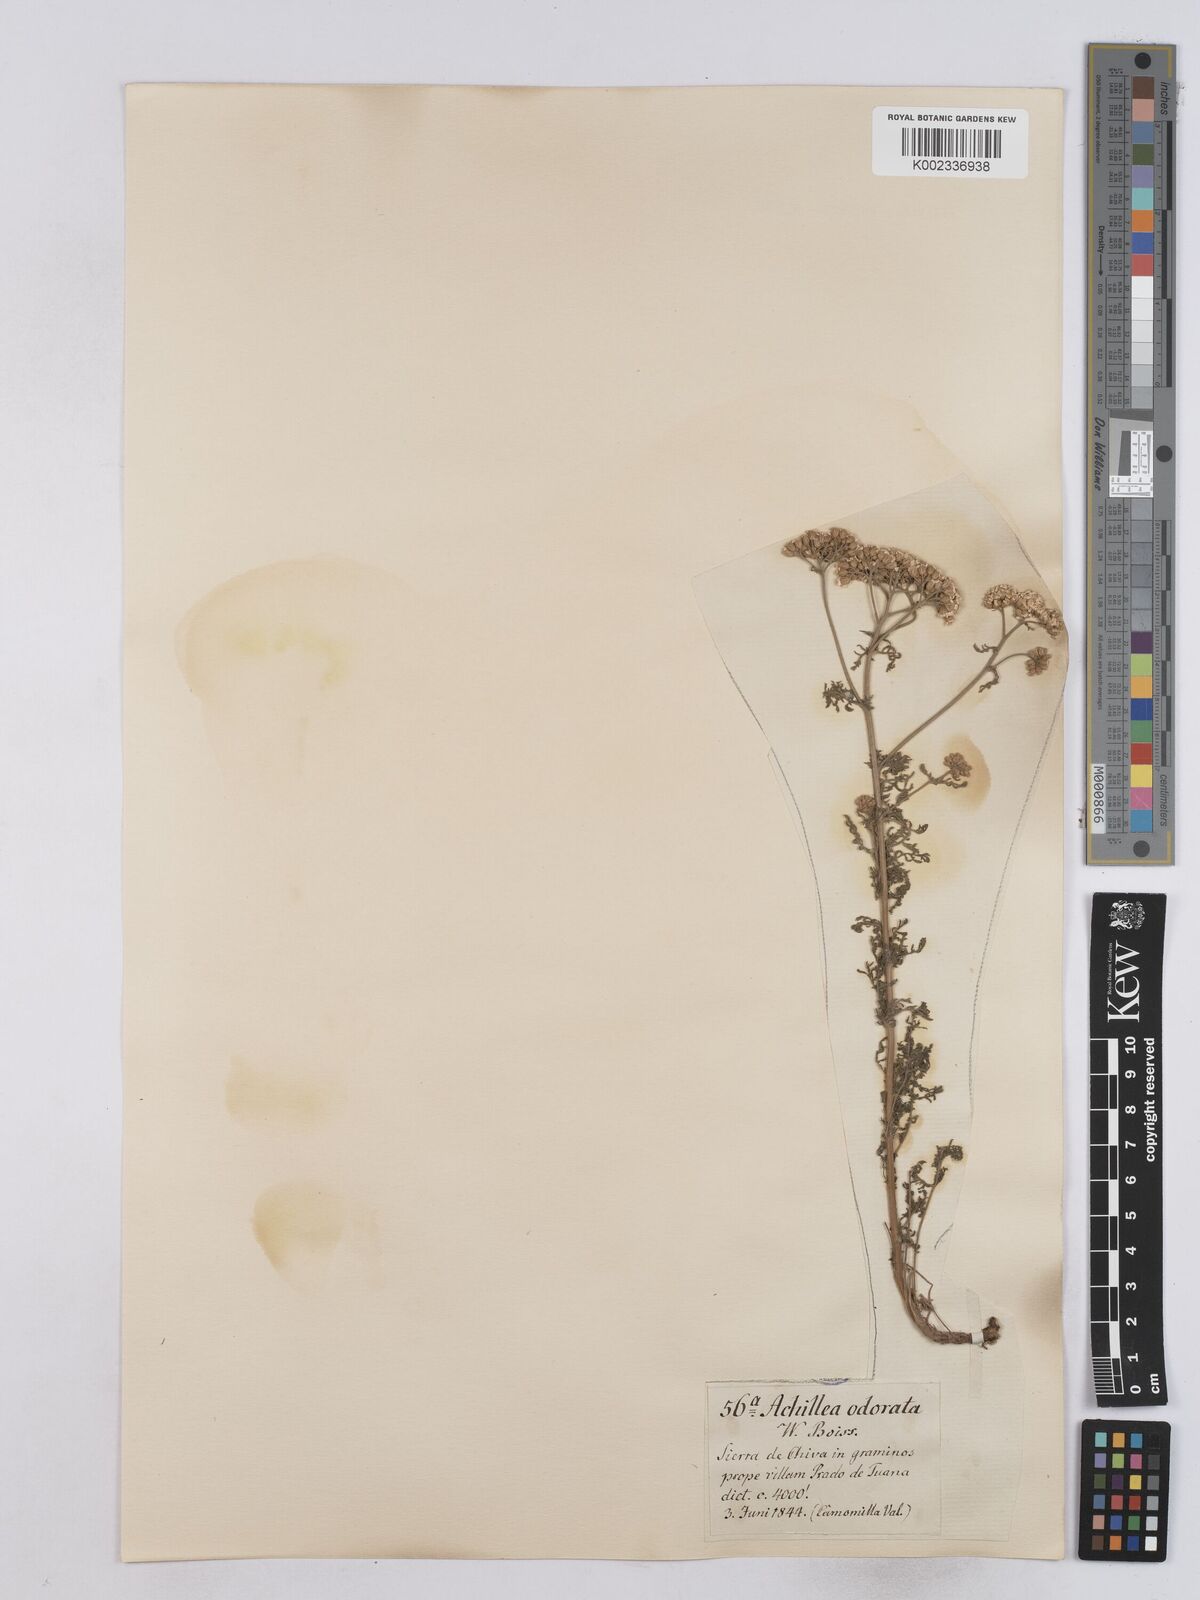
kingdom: Plantae
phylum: Tracheophyta
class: Magnoliopsida
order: Asterales
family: Asteraceae
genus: Achillea
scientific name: Achillea odorata
